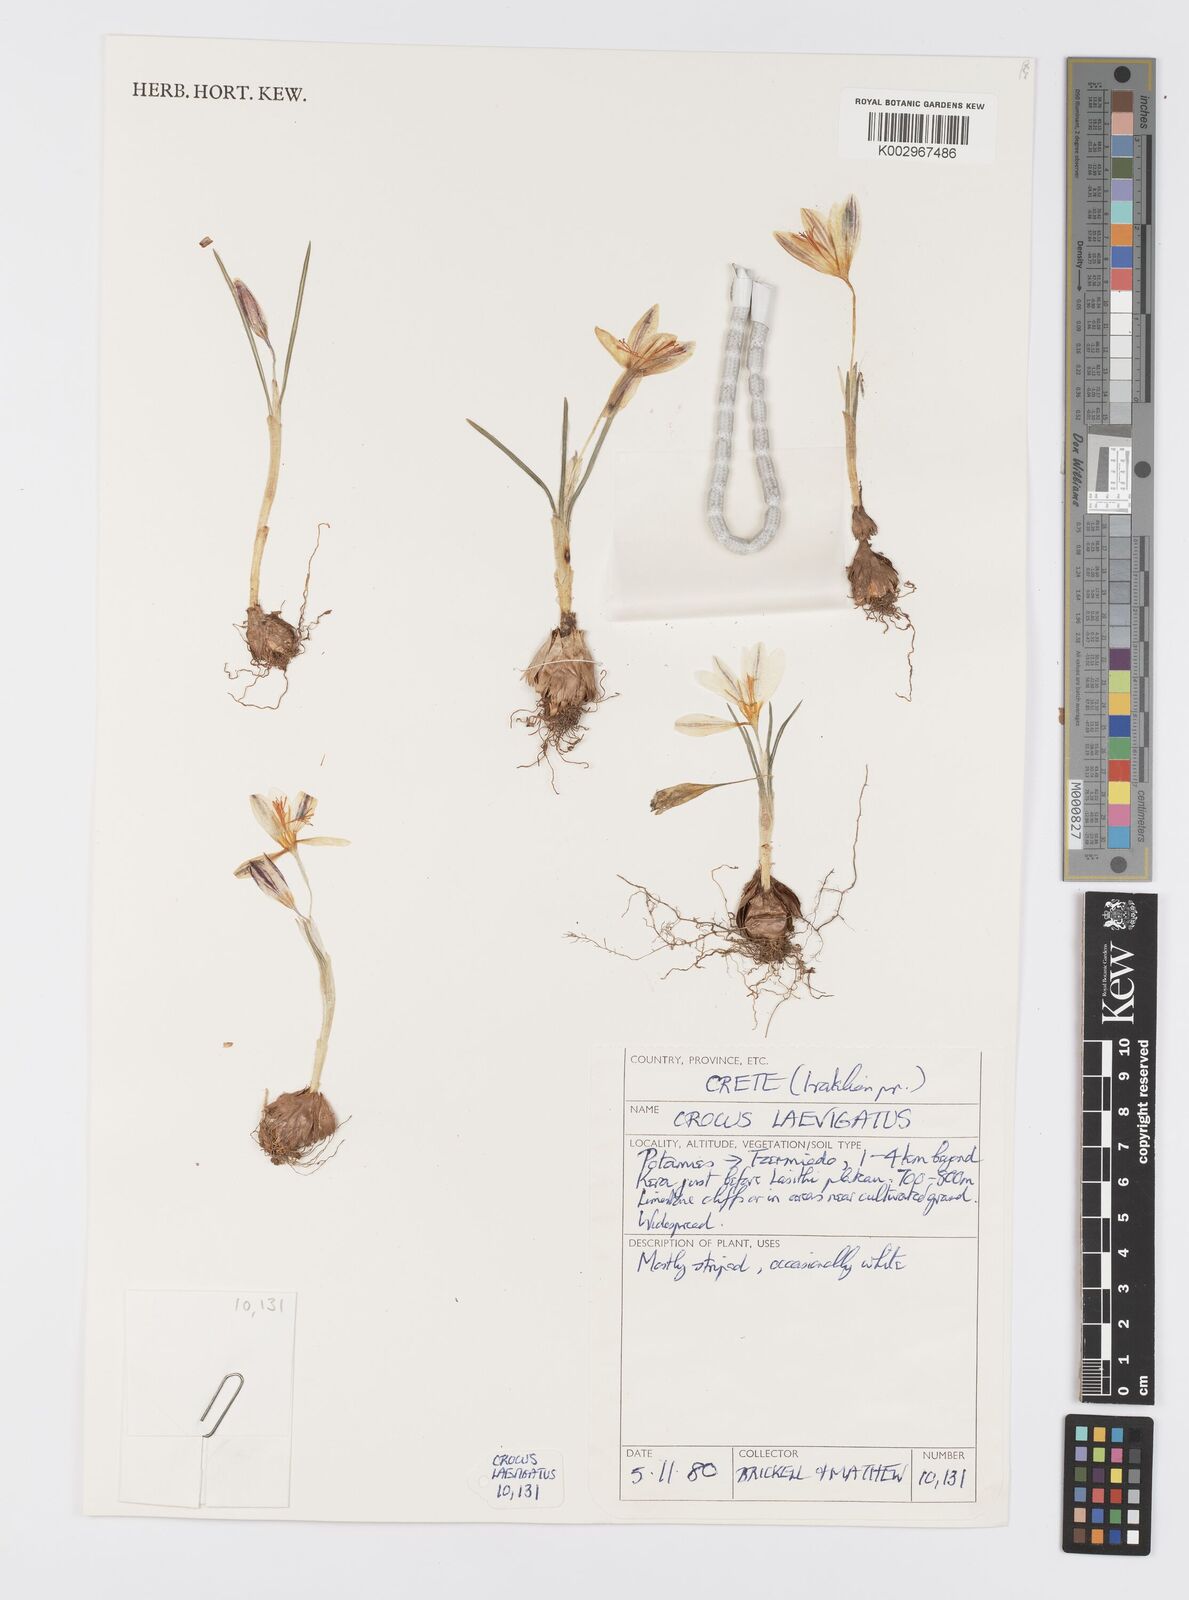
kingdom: Plantae
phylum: Tracheophyta
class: Liliopsida
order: Asparagales
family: Iridaceae
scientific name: Iridaceae
